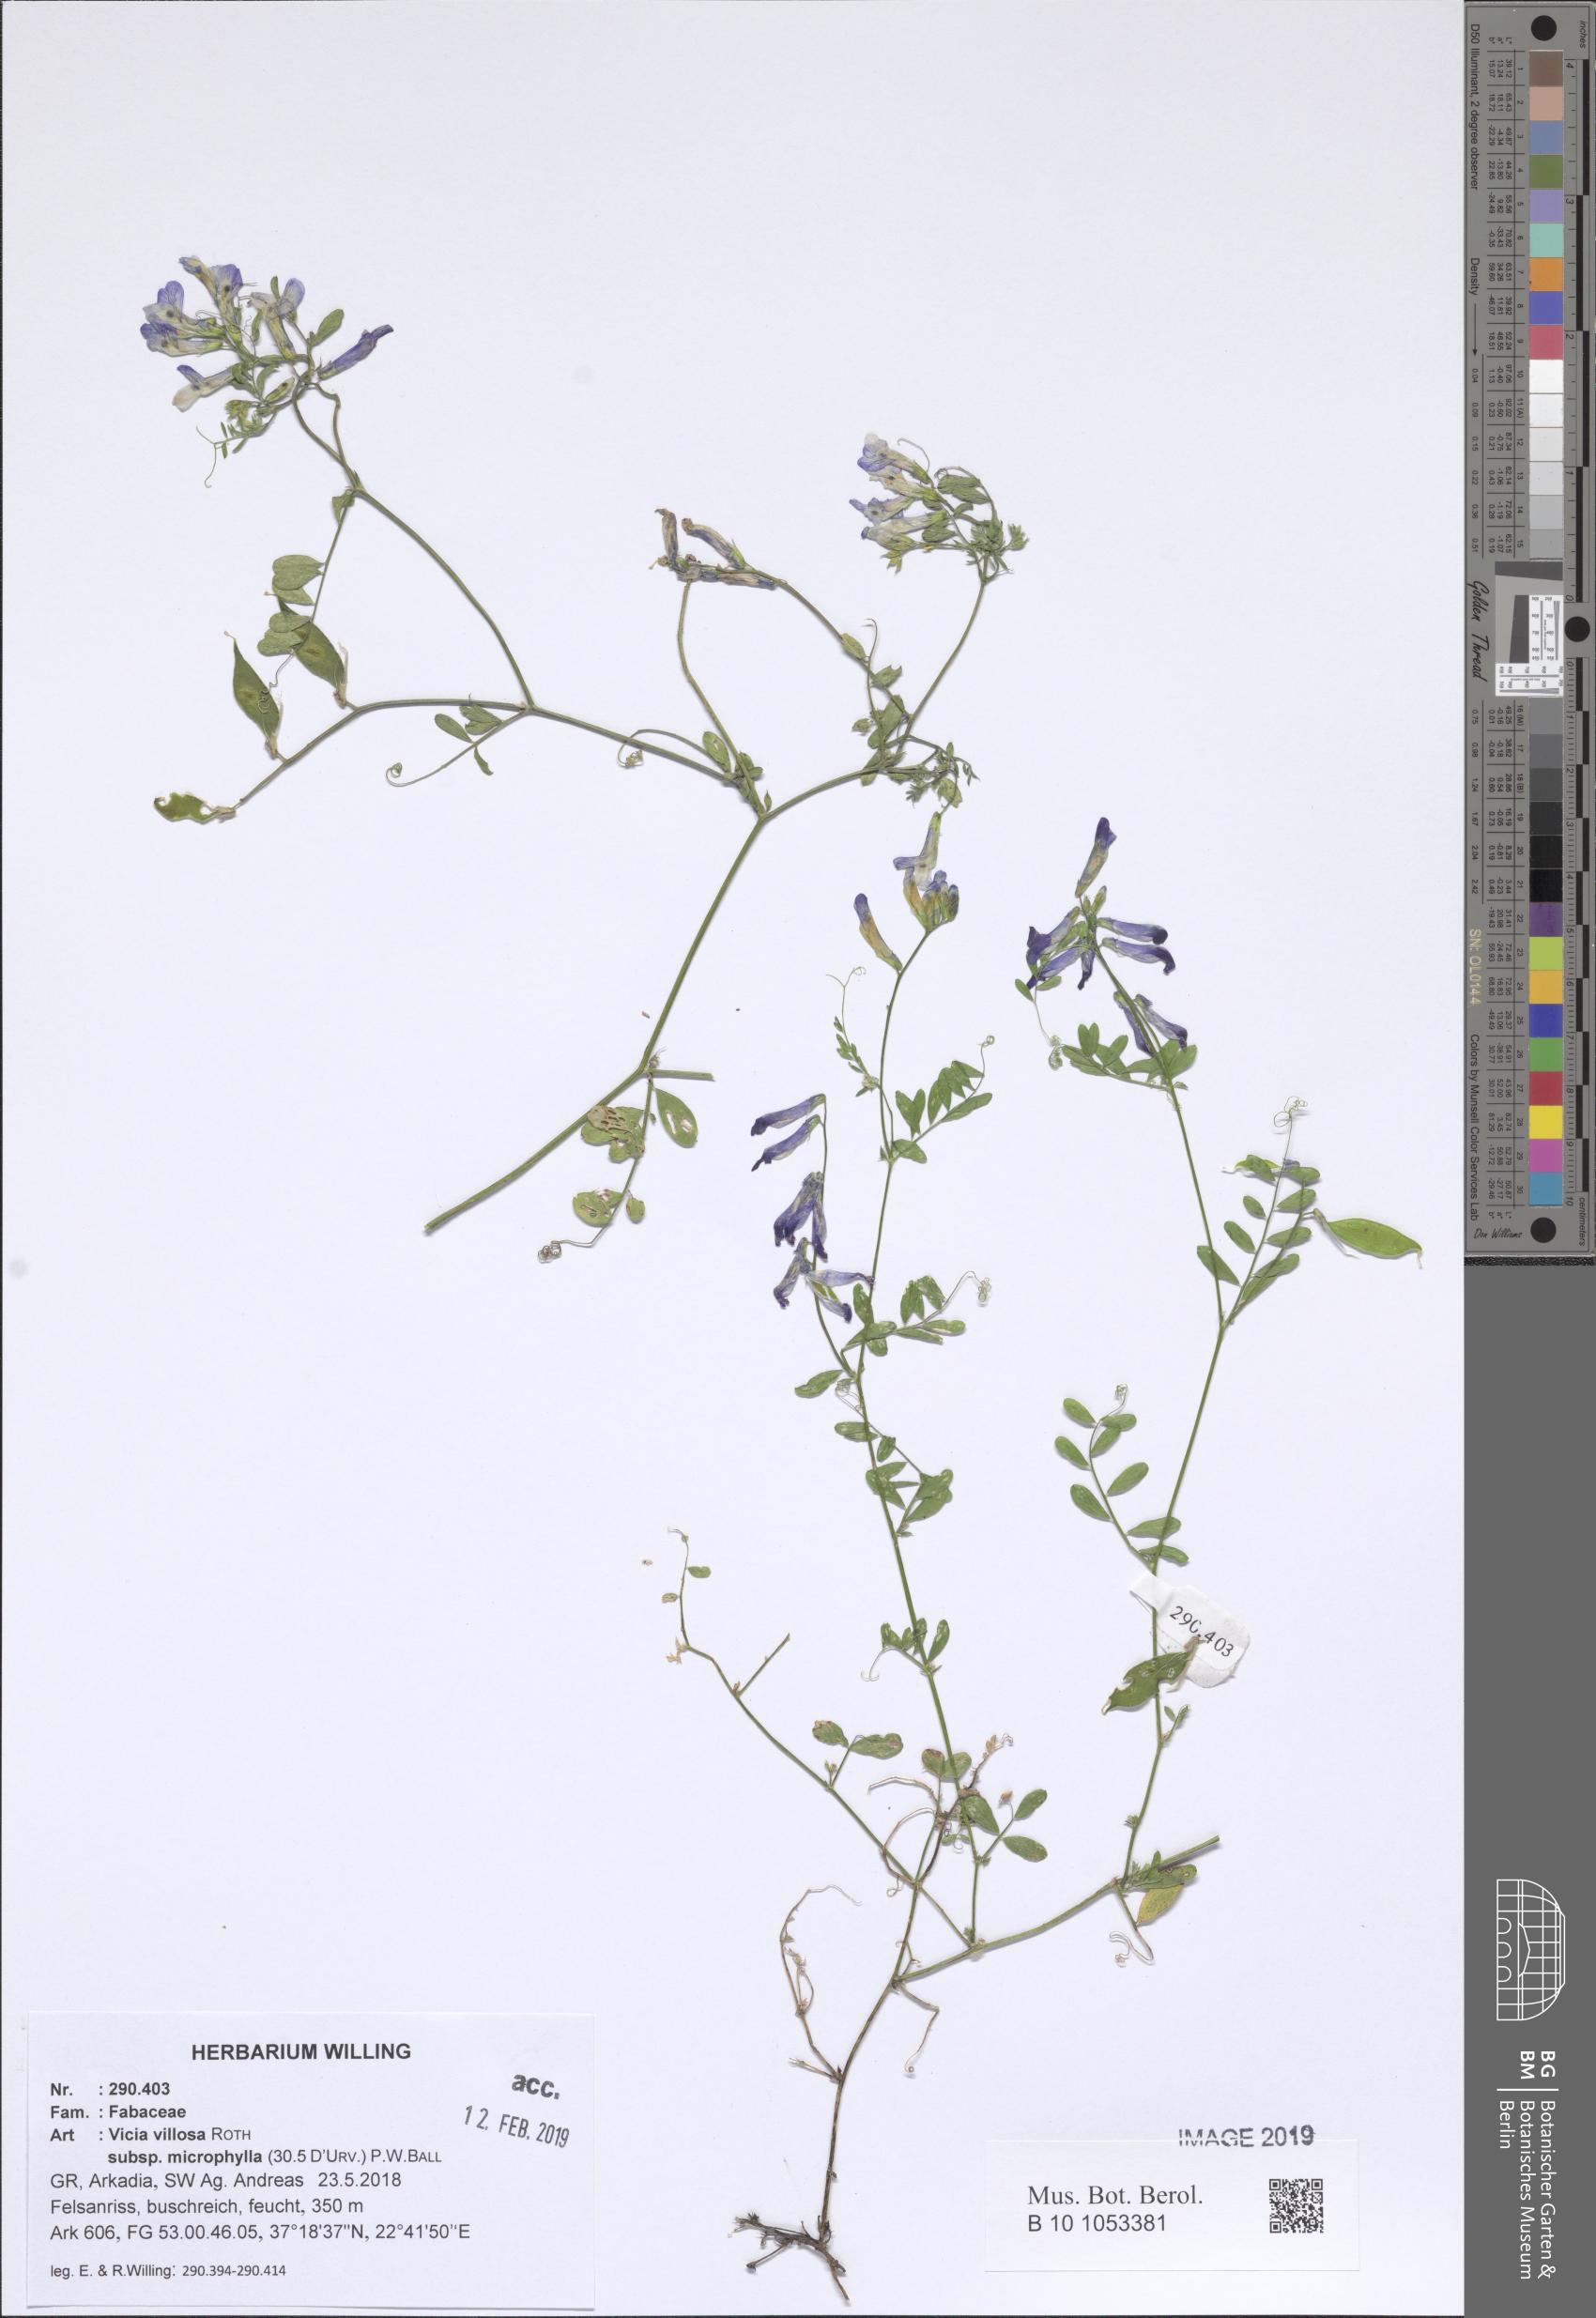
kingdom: Plantae
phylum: Tracheophyta
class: Magnoliopsida
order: Fabales
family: Fabaceae
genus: Vicia
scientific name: Vicia villosa
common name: Fodder vetch
